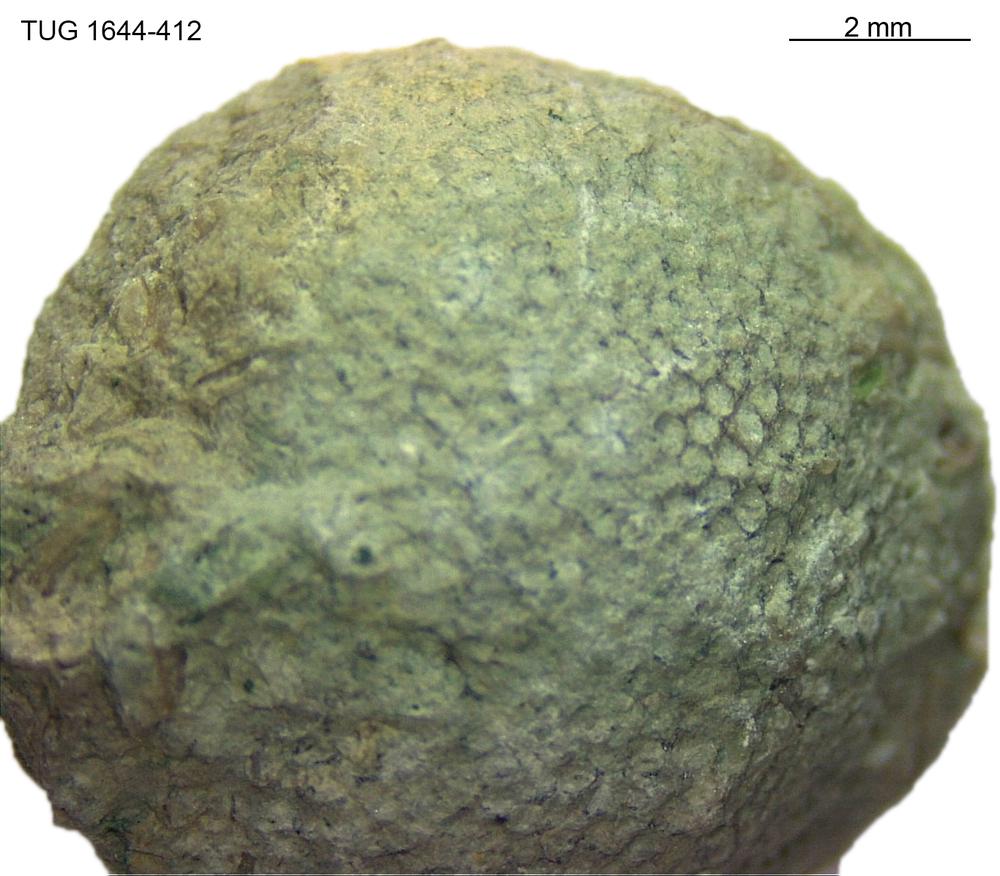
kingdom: Animalia
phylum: Bryozoa
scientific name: Bryozoa
